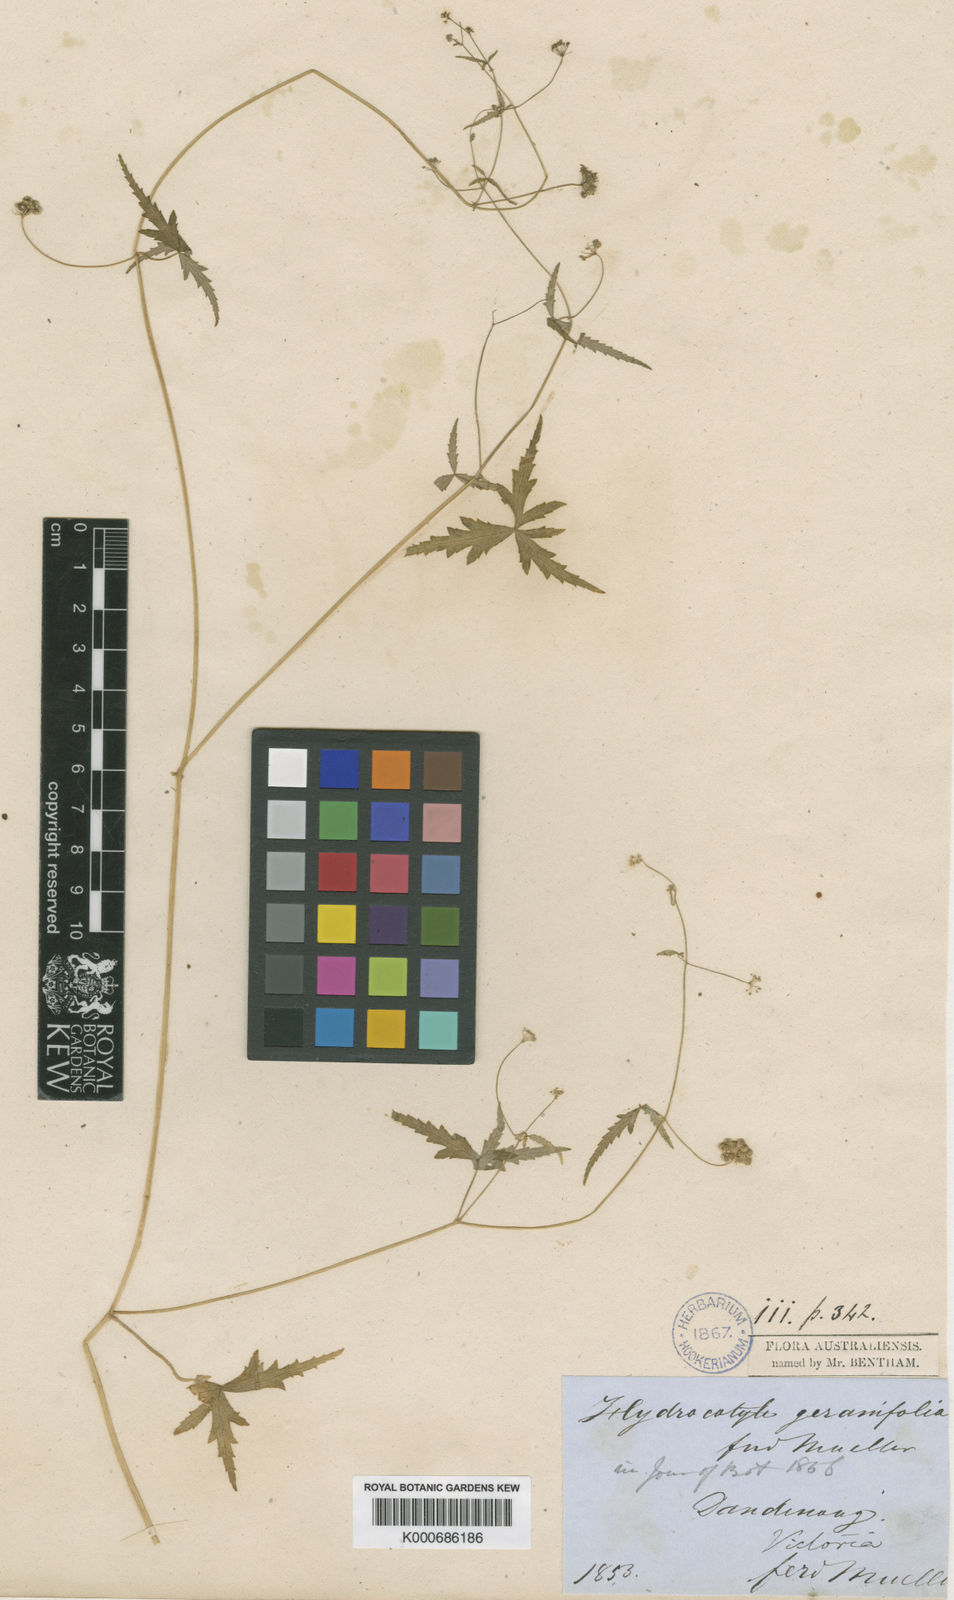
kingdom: Plantae
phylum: Tracheophyta
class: Magnoliopsida
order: Apiales
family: Araliaceae
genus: Hydrocotyle
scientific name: Hydrocotyle geraniifolia
